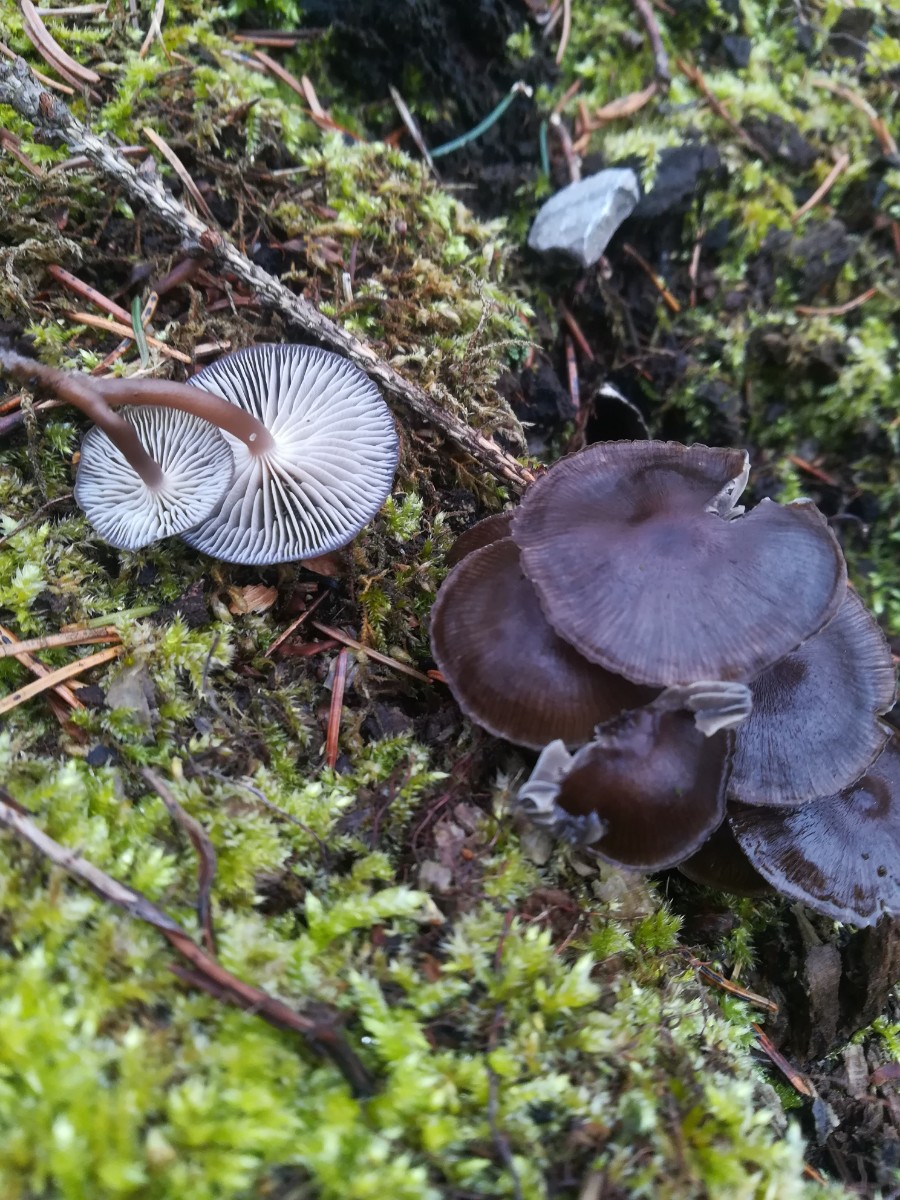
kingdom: Fungi
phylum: Basidiomycota
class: Agaricomycetes
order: Agaricales
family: Mycenaceae
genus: Mycena
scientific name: Mycena tintinnabulum
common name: vinter-huesvamp
